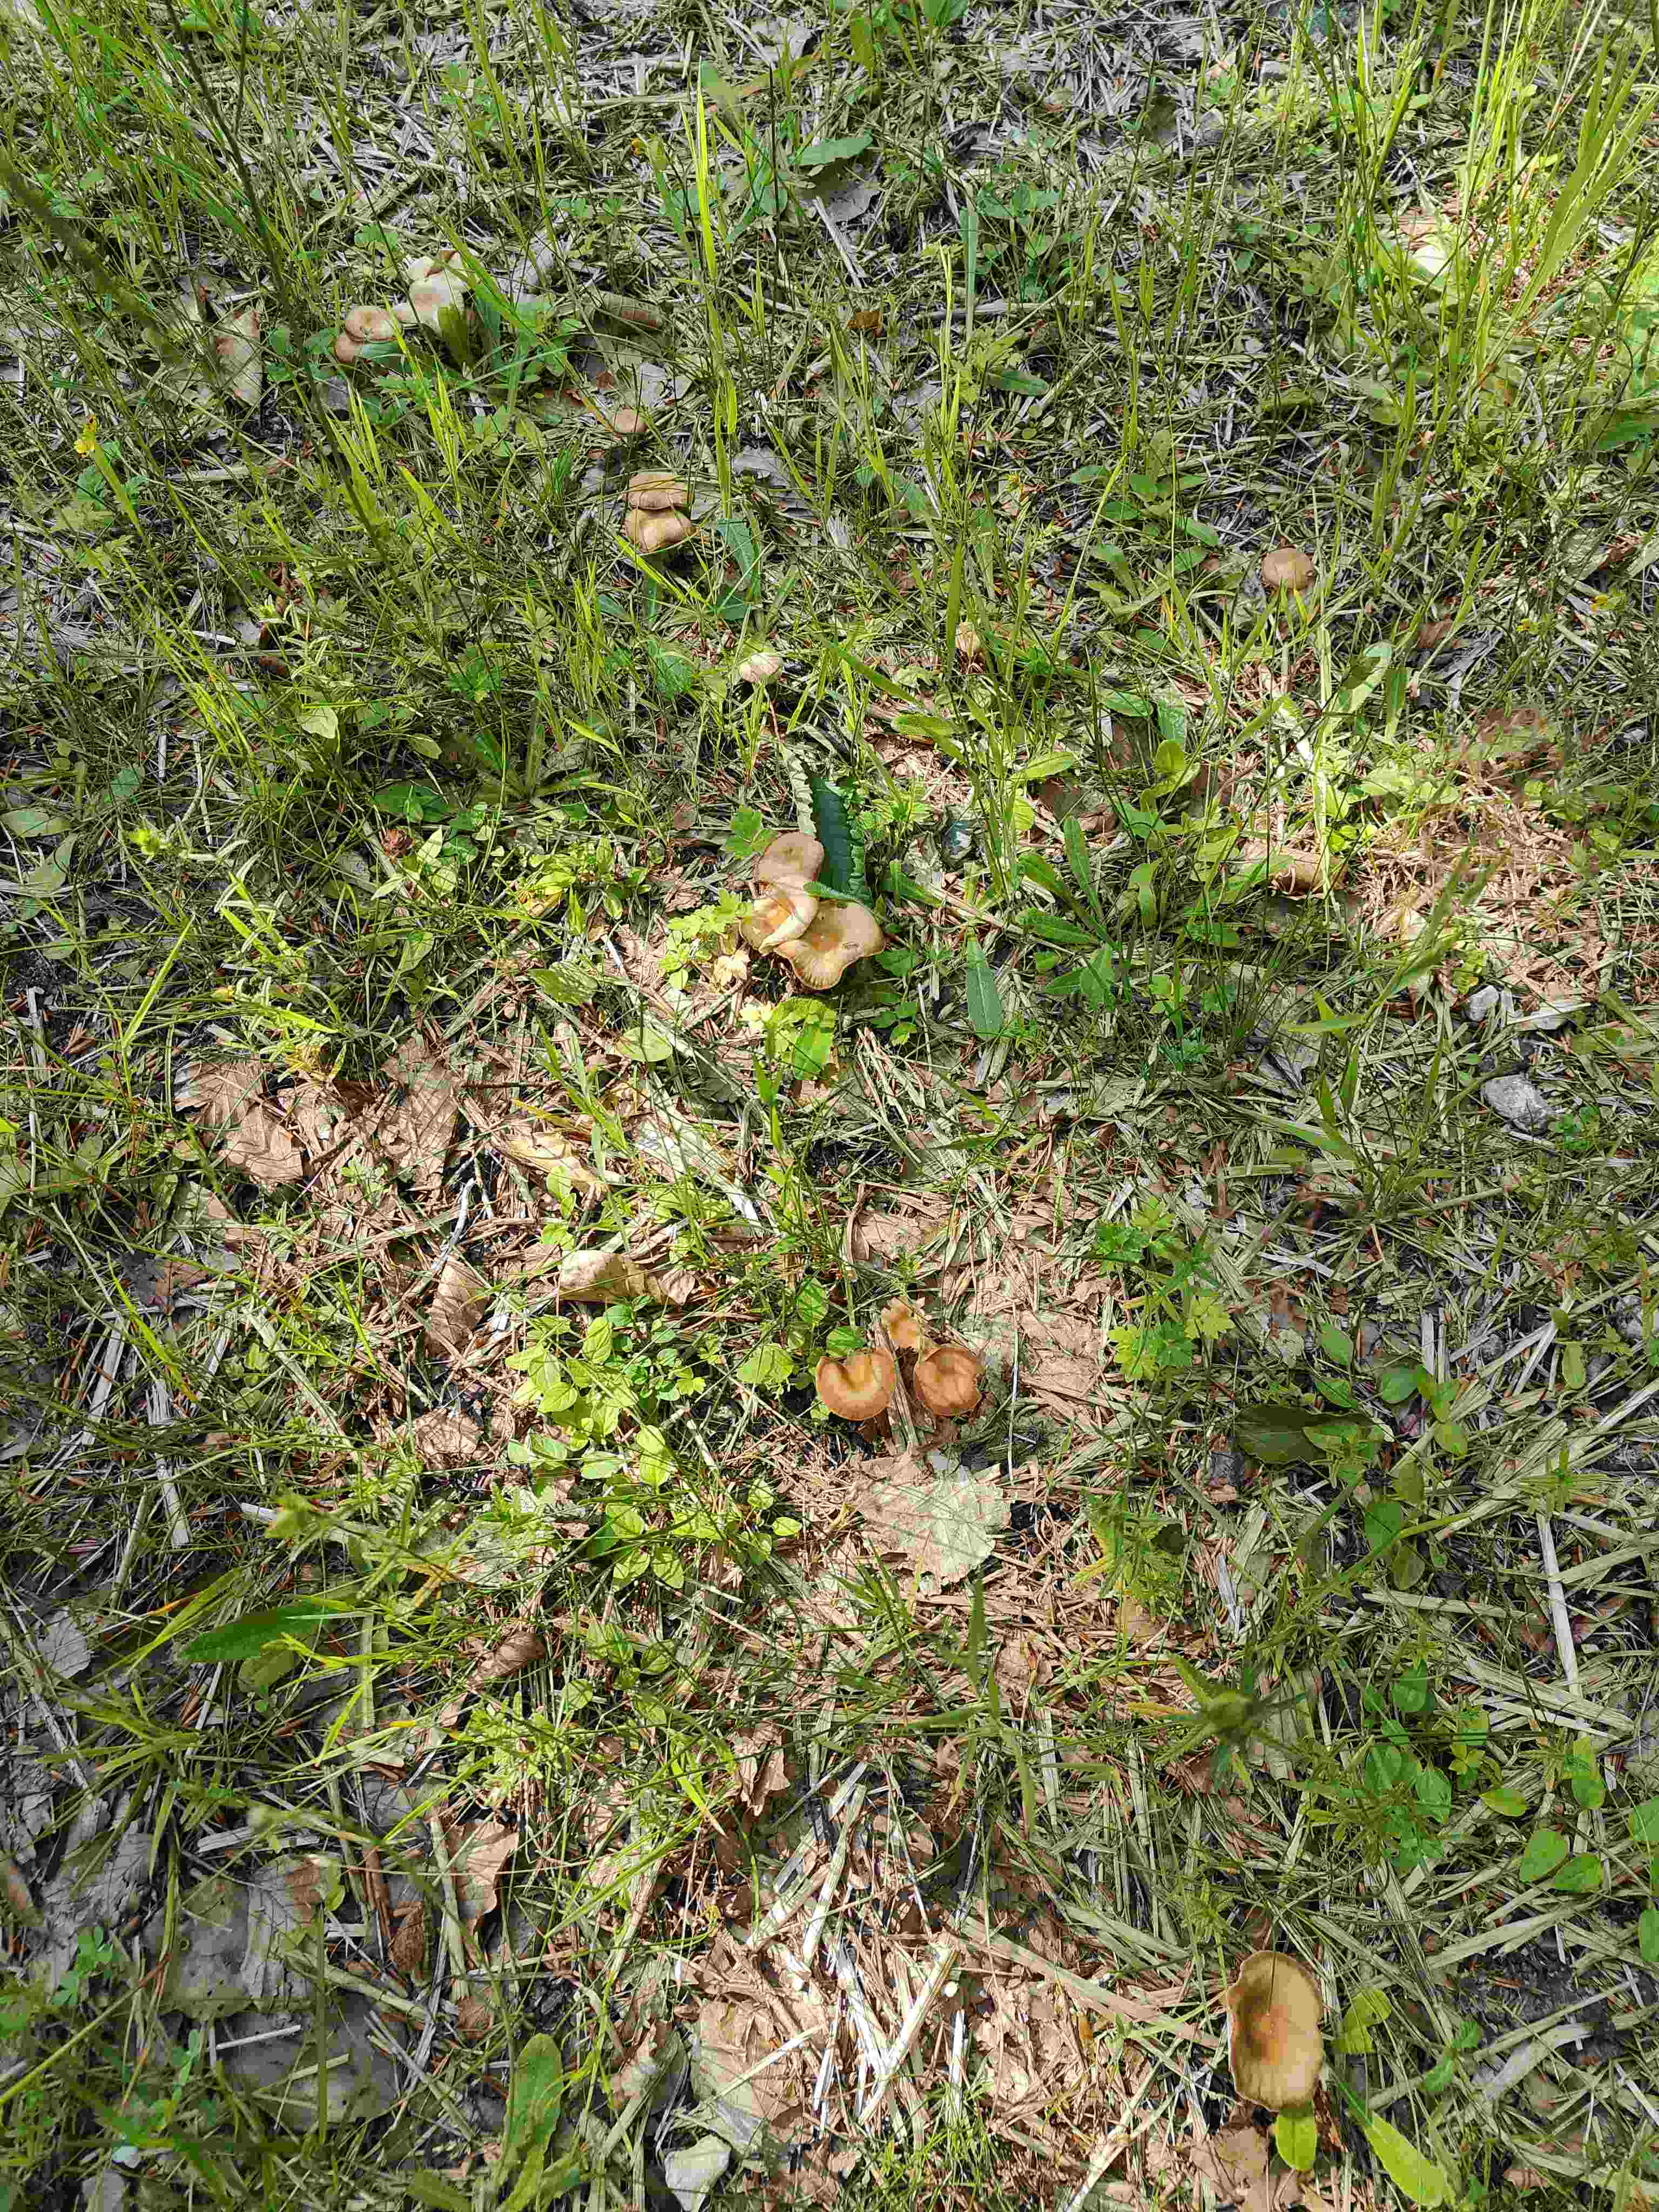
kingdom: Fungi
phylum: Basidiomycota
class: Agaricomycetes
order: Agaricales
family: Omphalotaceae
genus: Gymnopus
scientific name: Gymnopus
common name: fladhat
